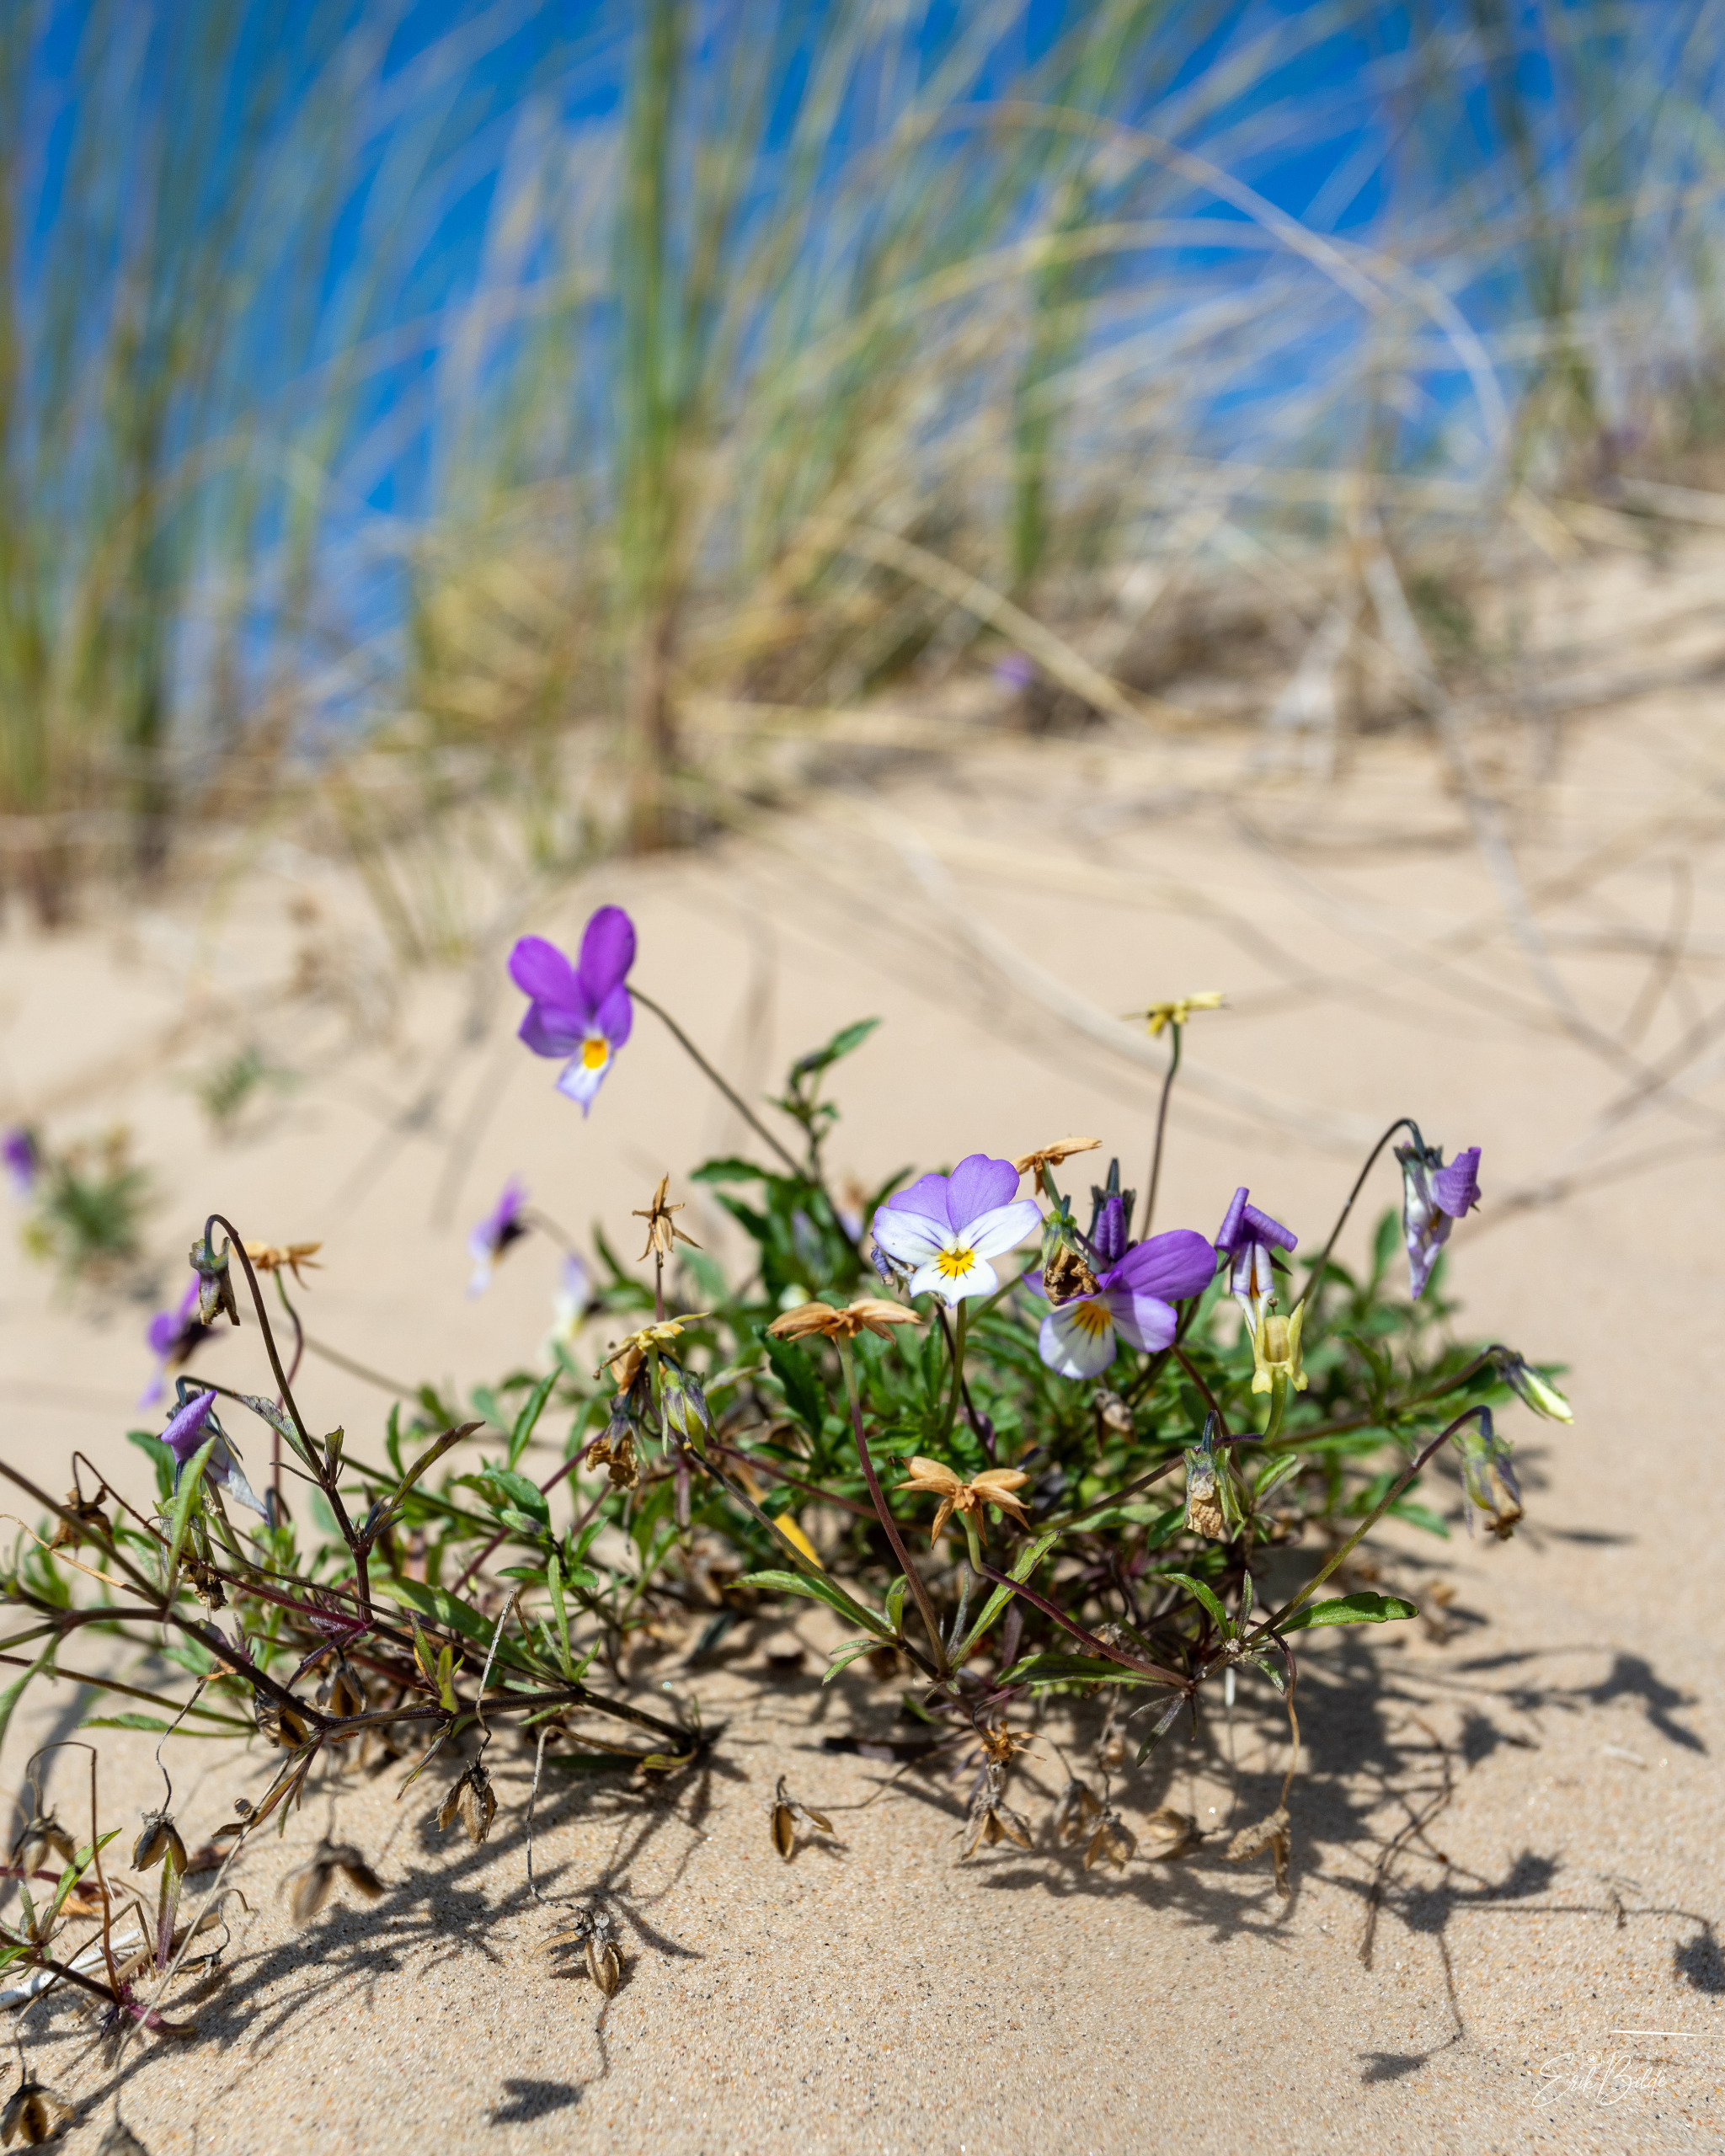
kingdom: Plantae
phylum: Tracheophyta
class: Magnoliopsida
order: Malpighiales
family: Violaceae
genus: Viola
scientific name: Viola tricolor
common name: Klit-stedmoderblomst
